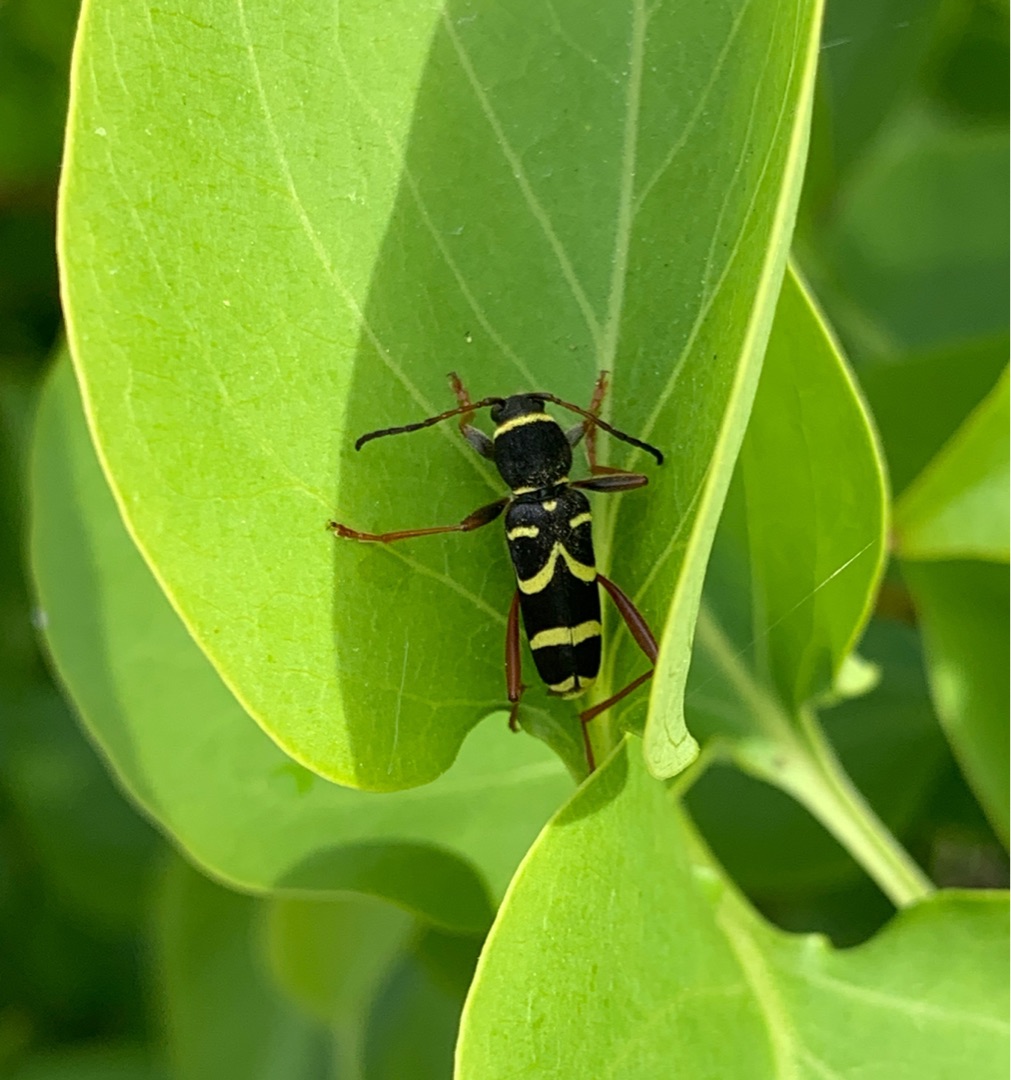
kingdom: Animalia
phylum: Arthropoda
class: Insecta
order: Coleoptera
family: Cerambycidae
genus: Clytus
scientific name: Clytus arietis
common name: Lille hvepsebuk
